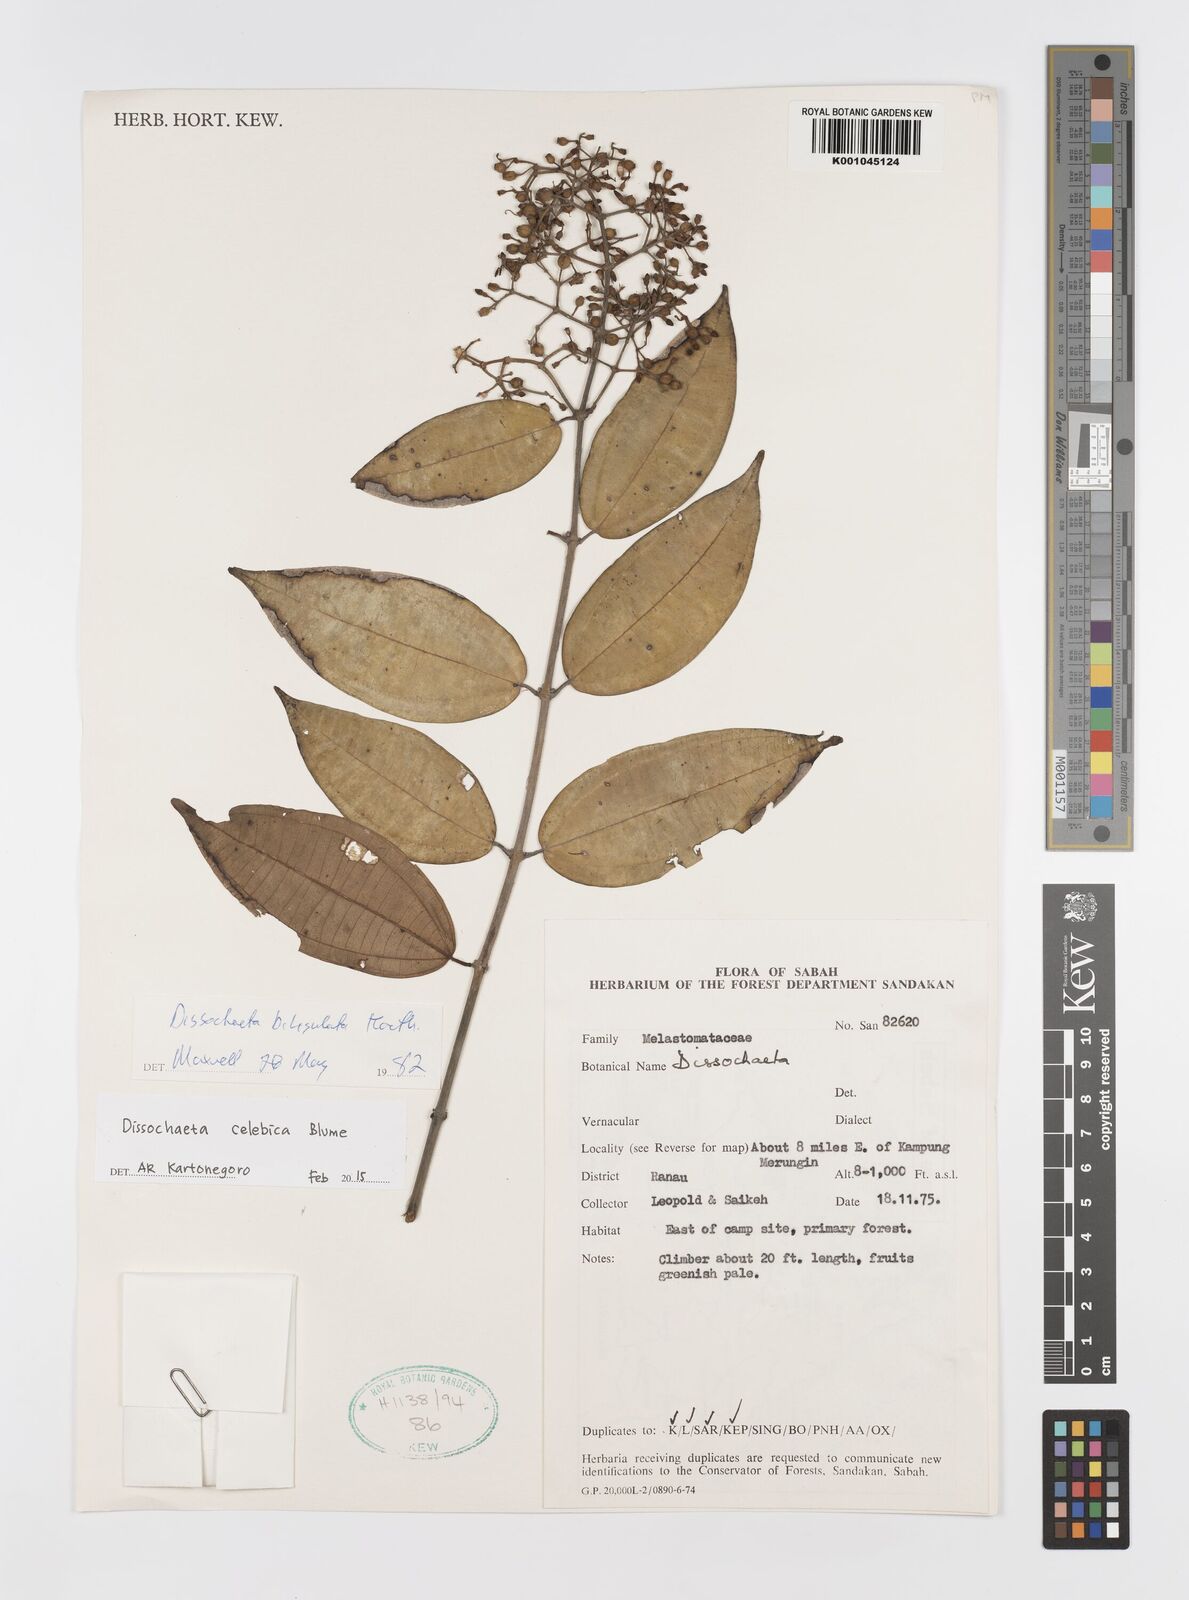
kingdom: Plantae
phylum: Tracheophyta
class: Magnoliopsida
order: Myrtales
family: Melastomataceae
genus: Dissochaeta
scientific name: Dissochaeta celebica
